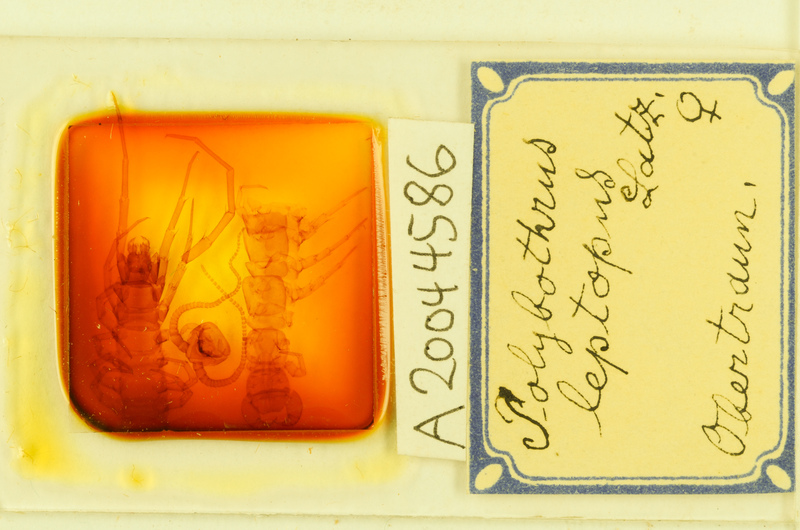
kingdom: Animalia
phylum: Arthropoda
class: Chilopoda
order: Lithobiomorpha
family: Lithobiidae
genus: Polybothrus
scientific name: Polybothrus leptopus
